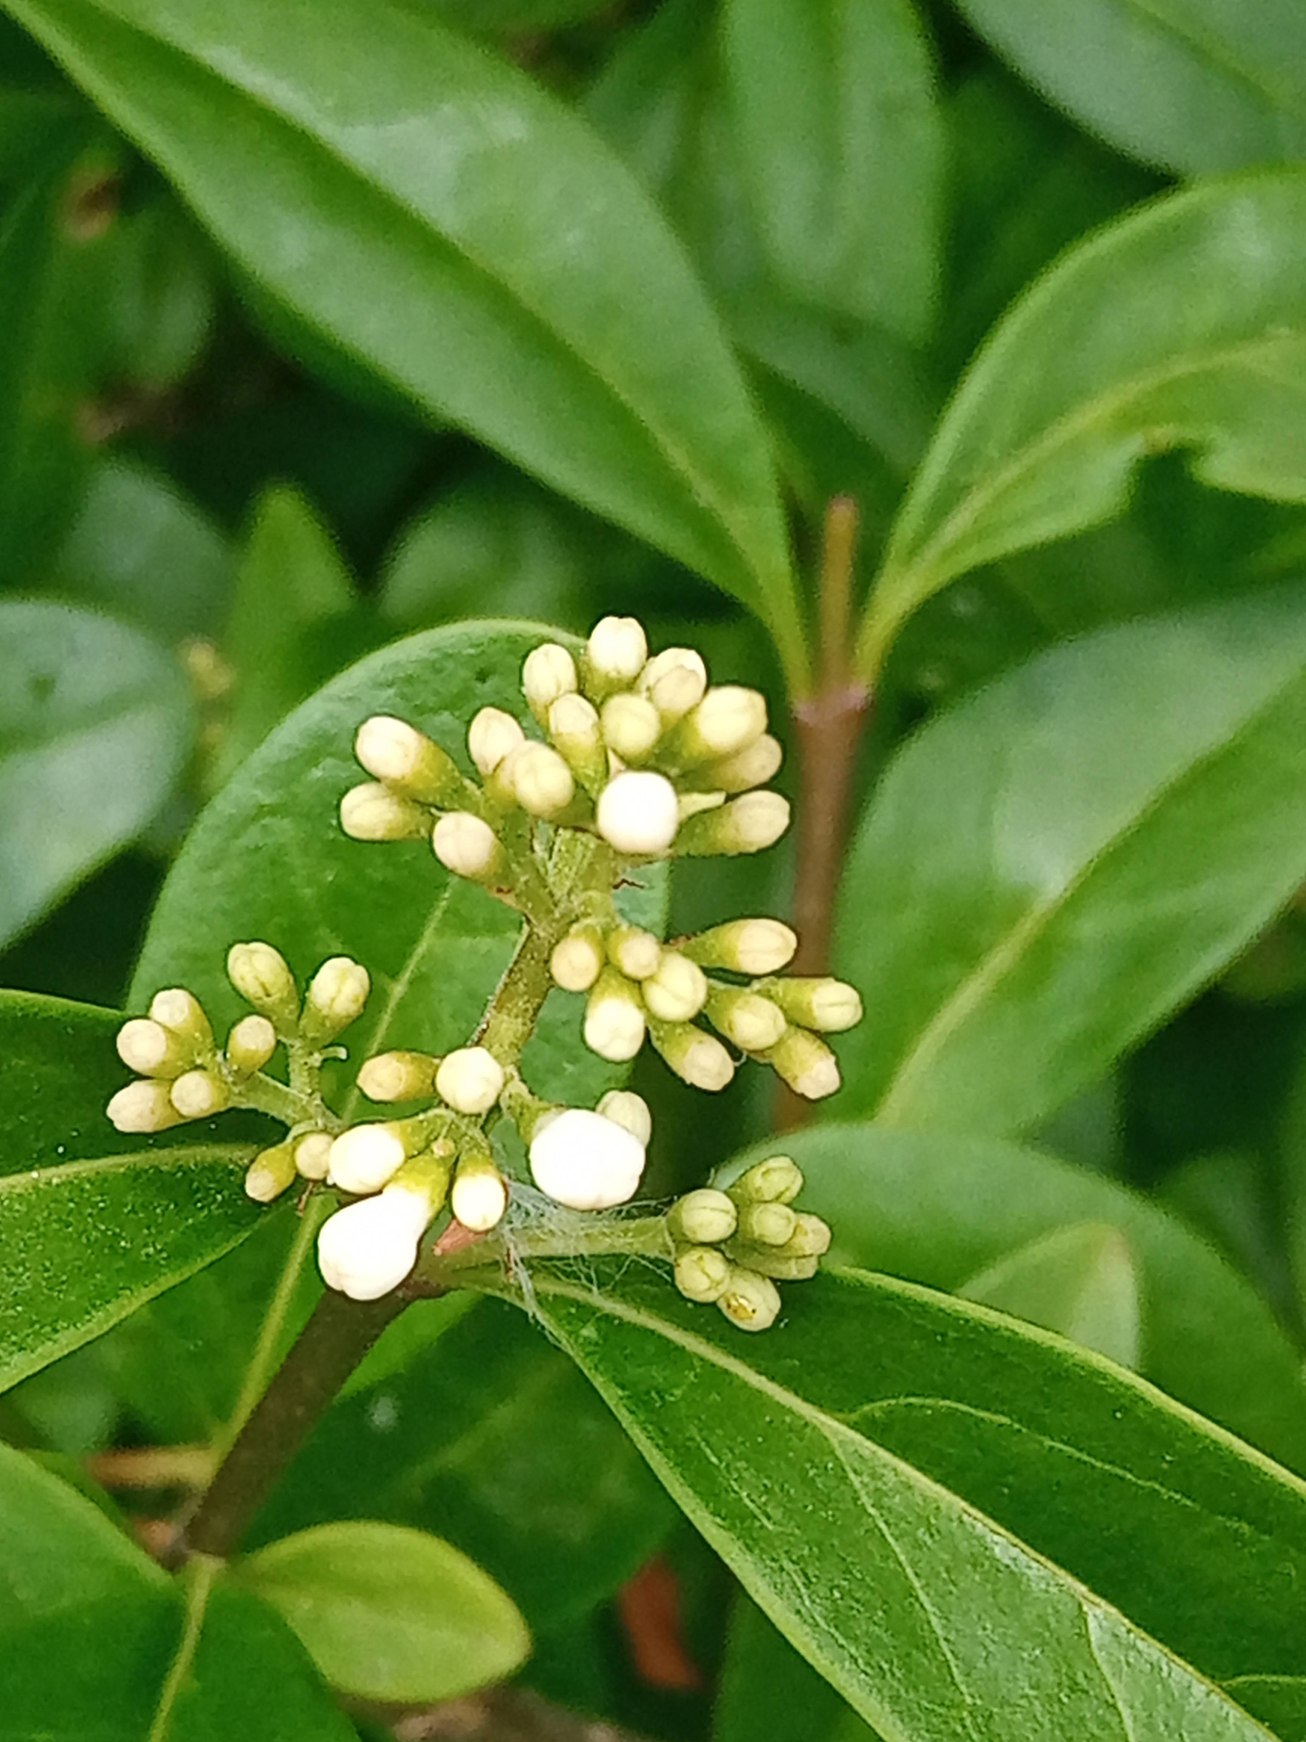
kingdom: Plantae
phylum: Tracheophyta
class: Magnoliopsida
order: Lamiales
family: Oleaceae
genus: Ligustrum
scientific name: Ligustrum vulgare
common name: Liguster
